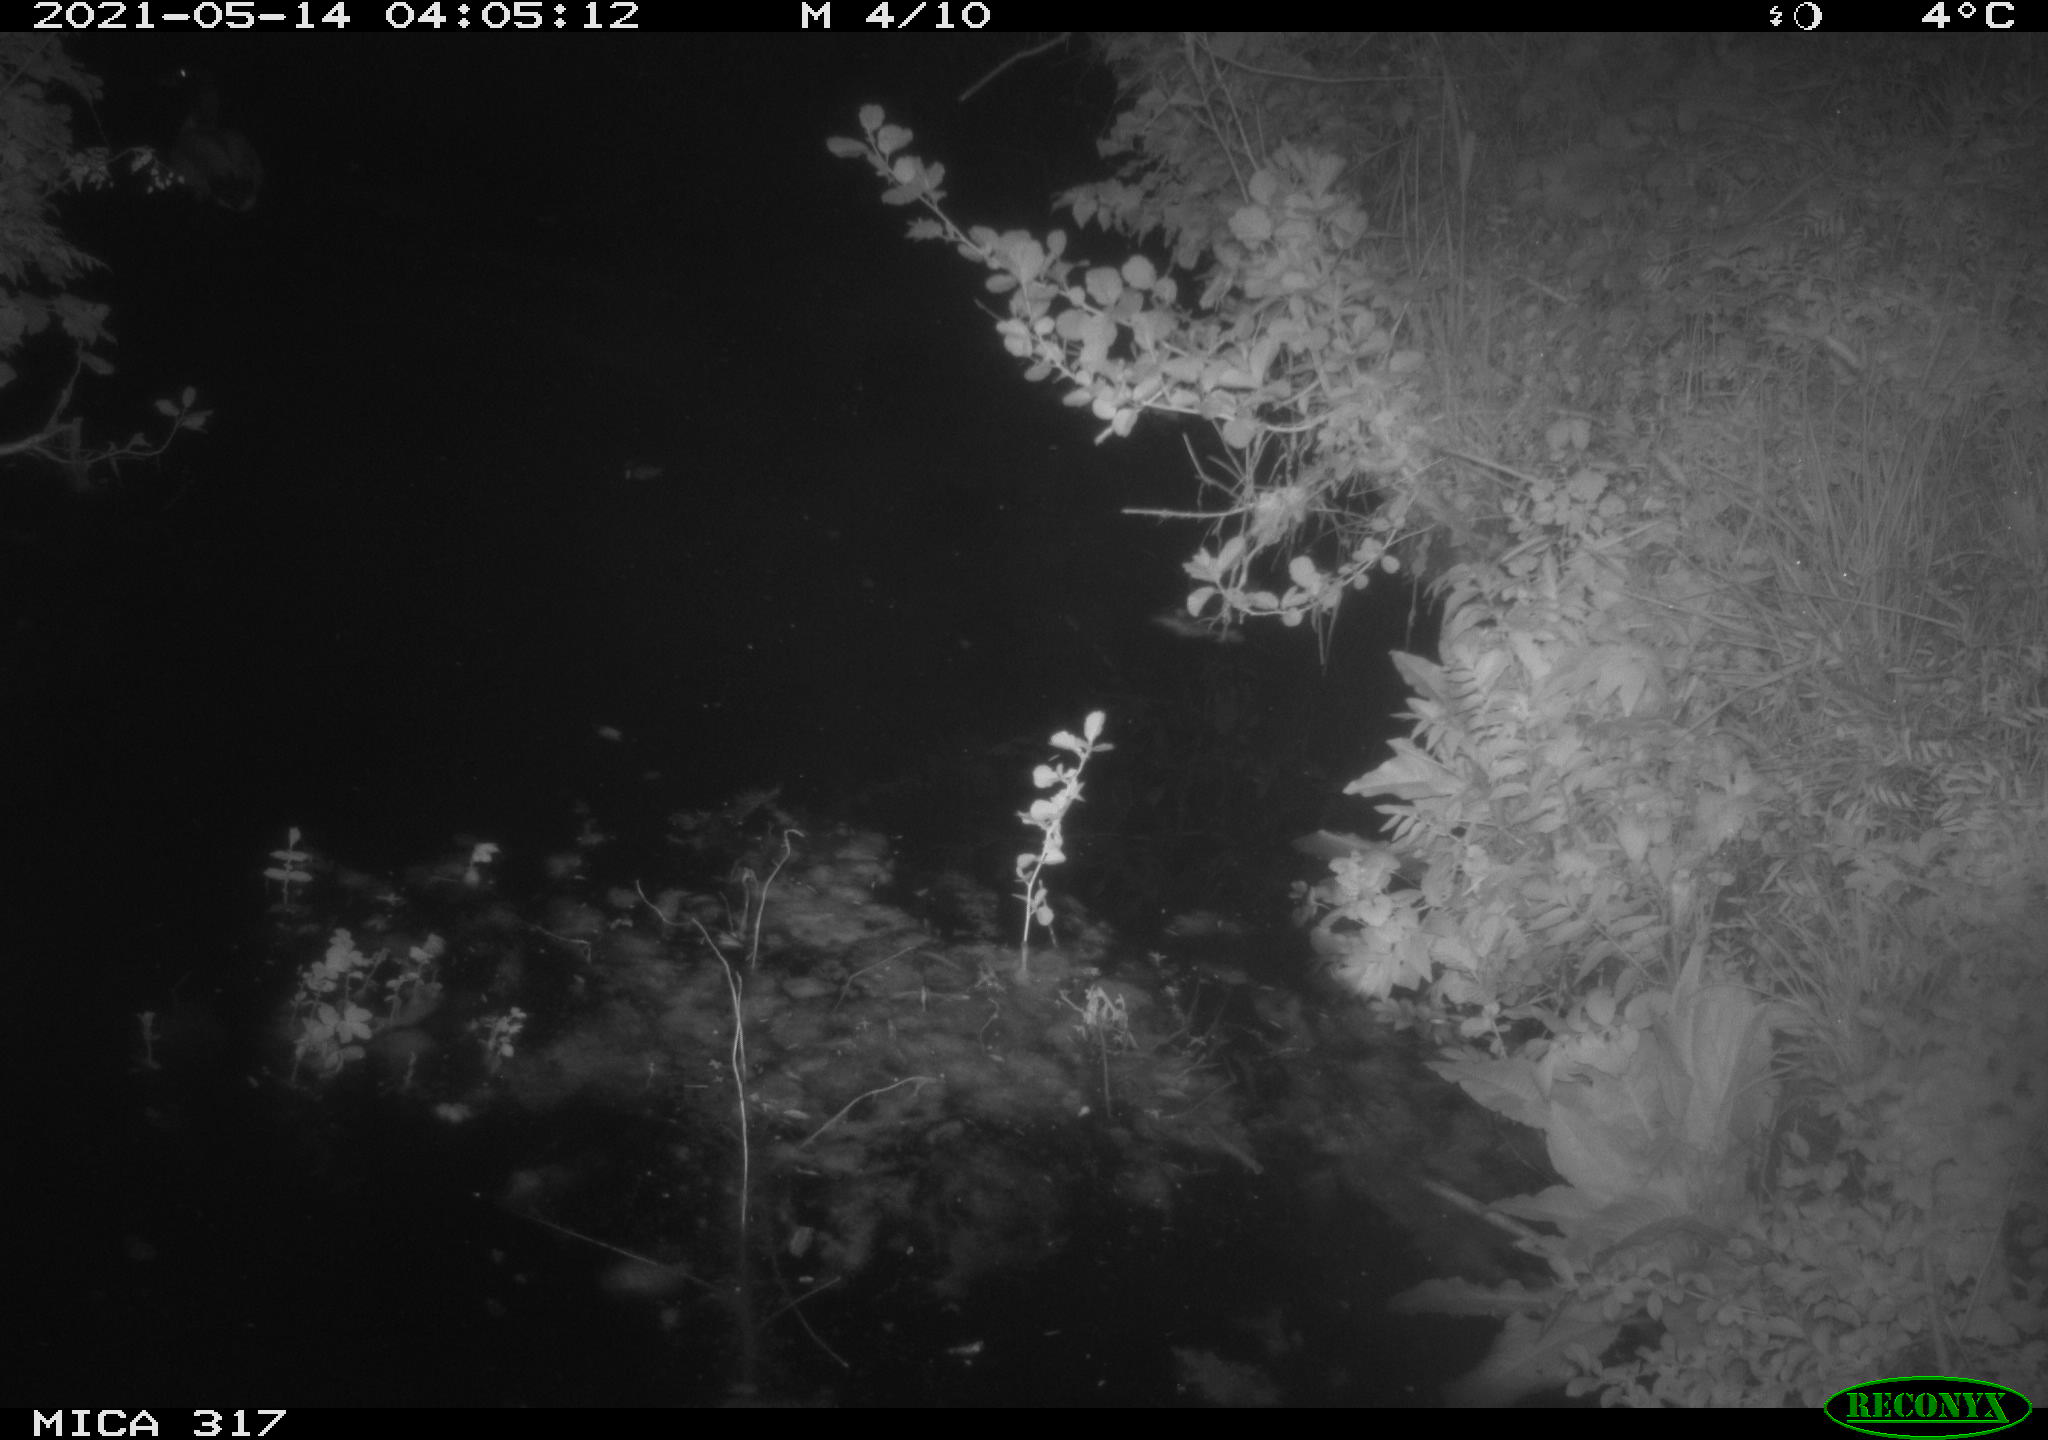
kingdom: Animalia
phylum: Chordata
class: Aves
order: Anseriformes
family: Anatidae
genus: Anas
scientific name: Anas
